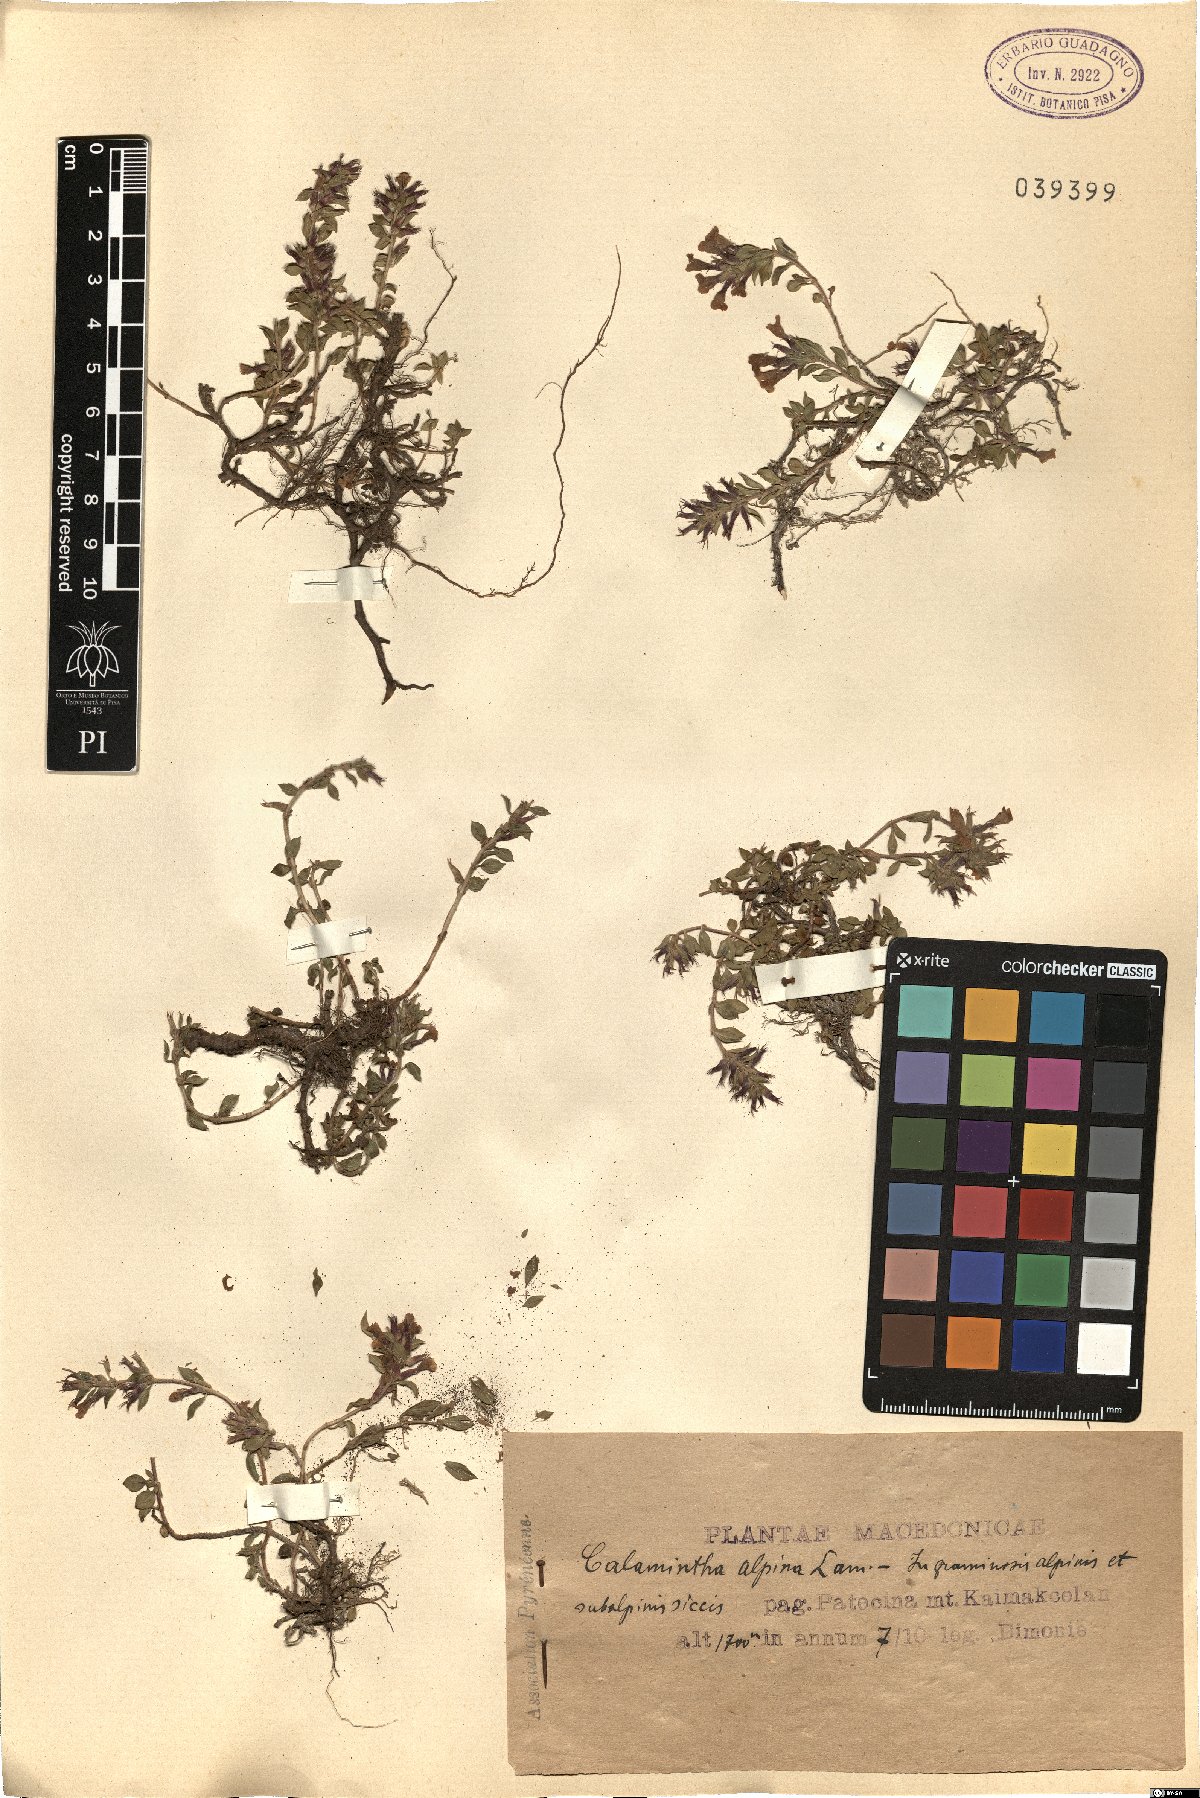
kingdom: Plantae
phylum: Tracheophyta
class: Magnoliopsida
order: Lamiales
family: Lamiaceae
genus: Clinopodium
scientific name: Clinopodium alpinum
